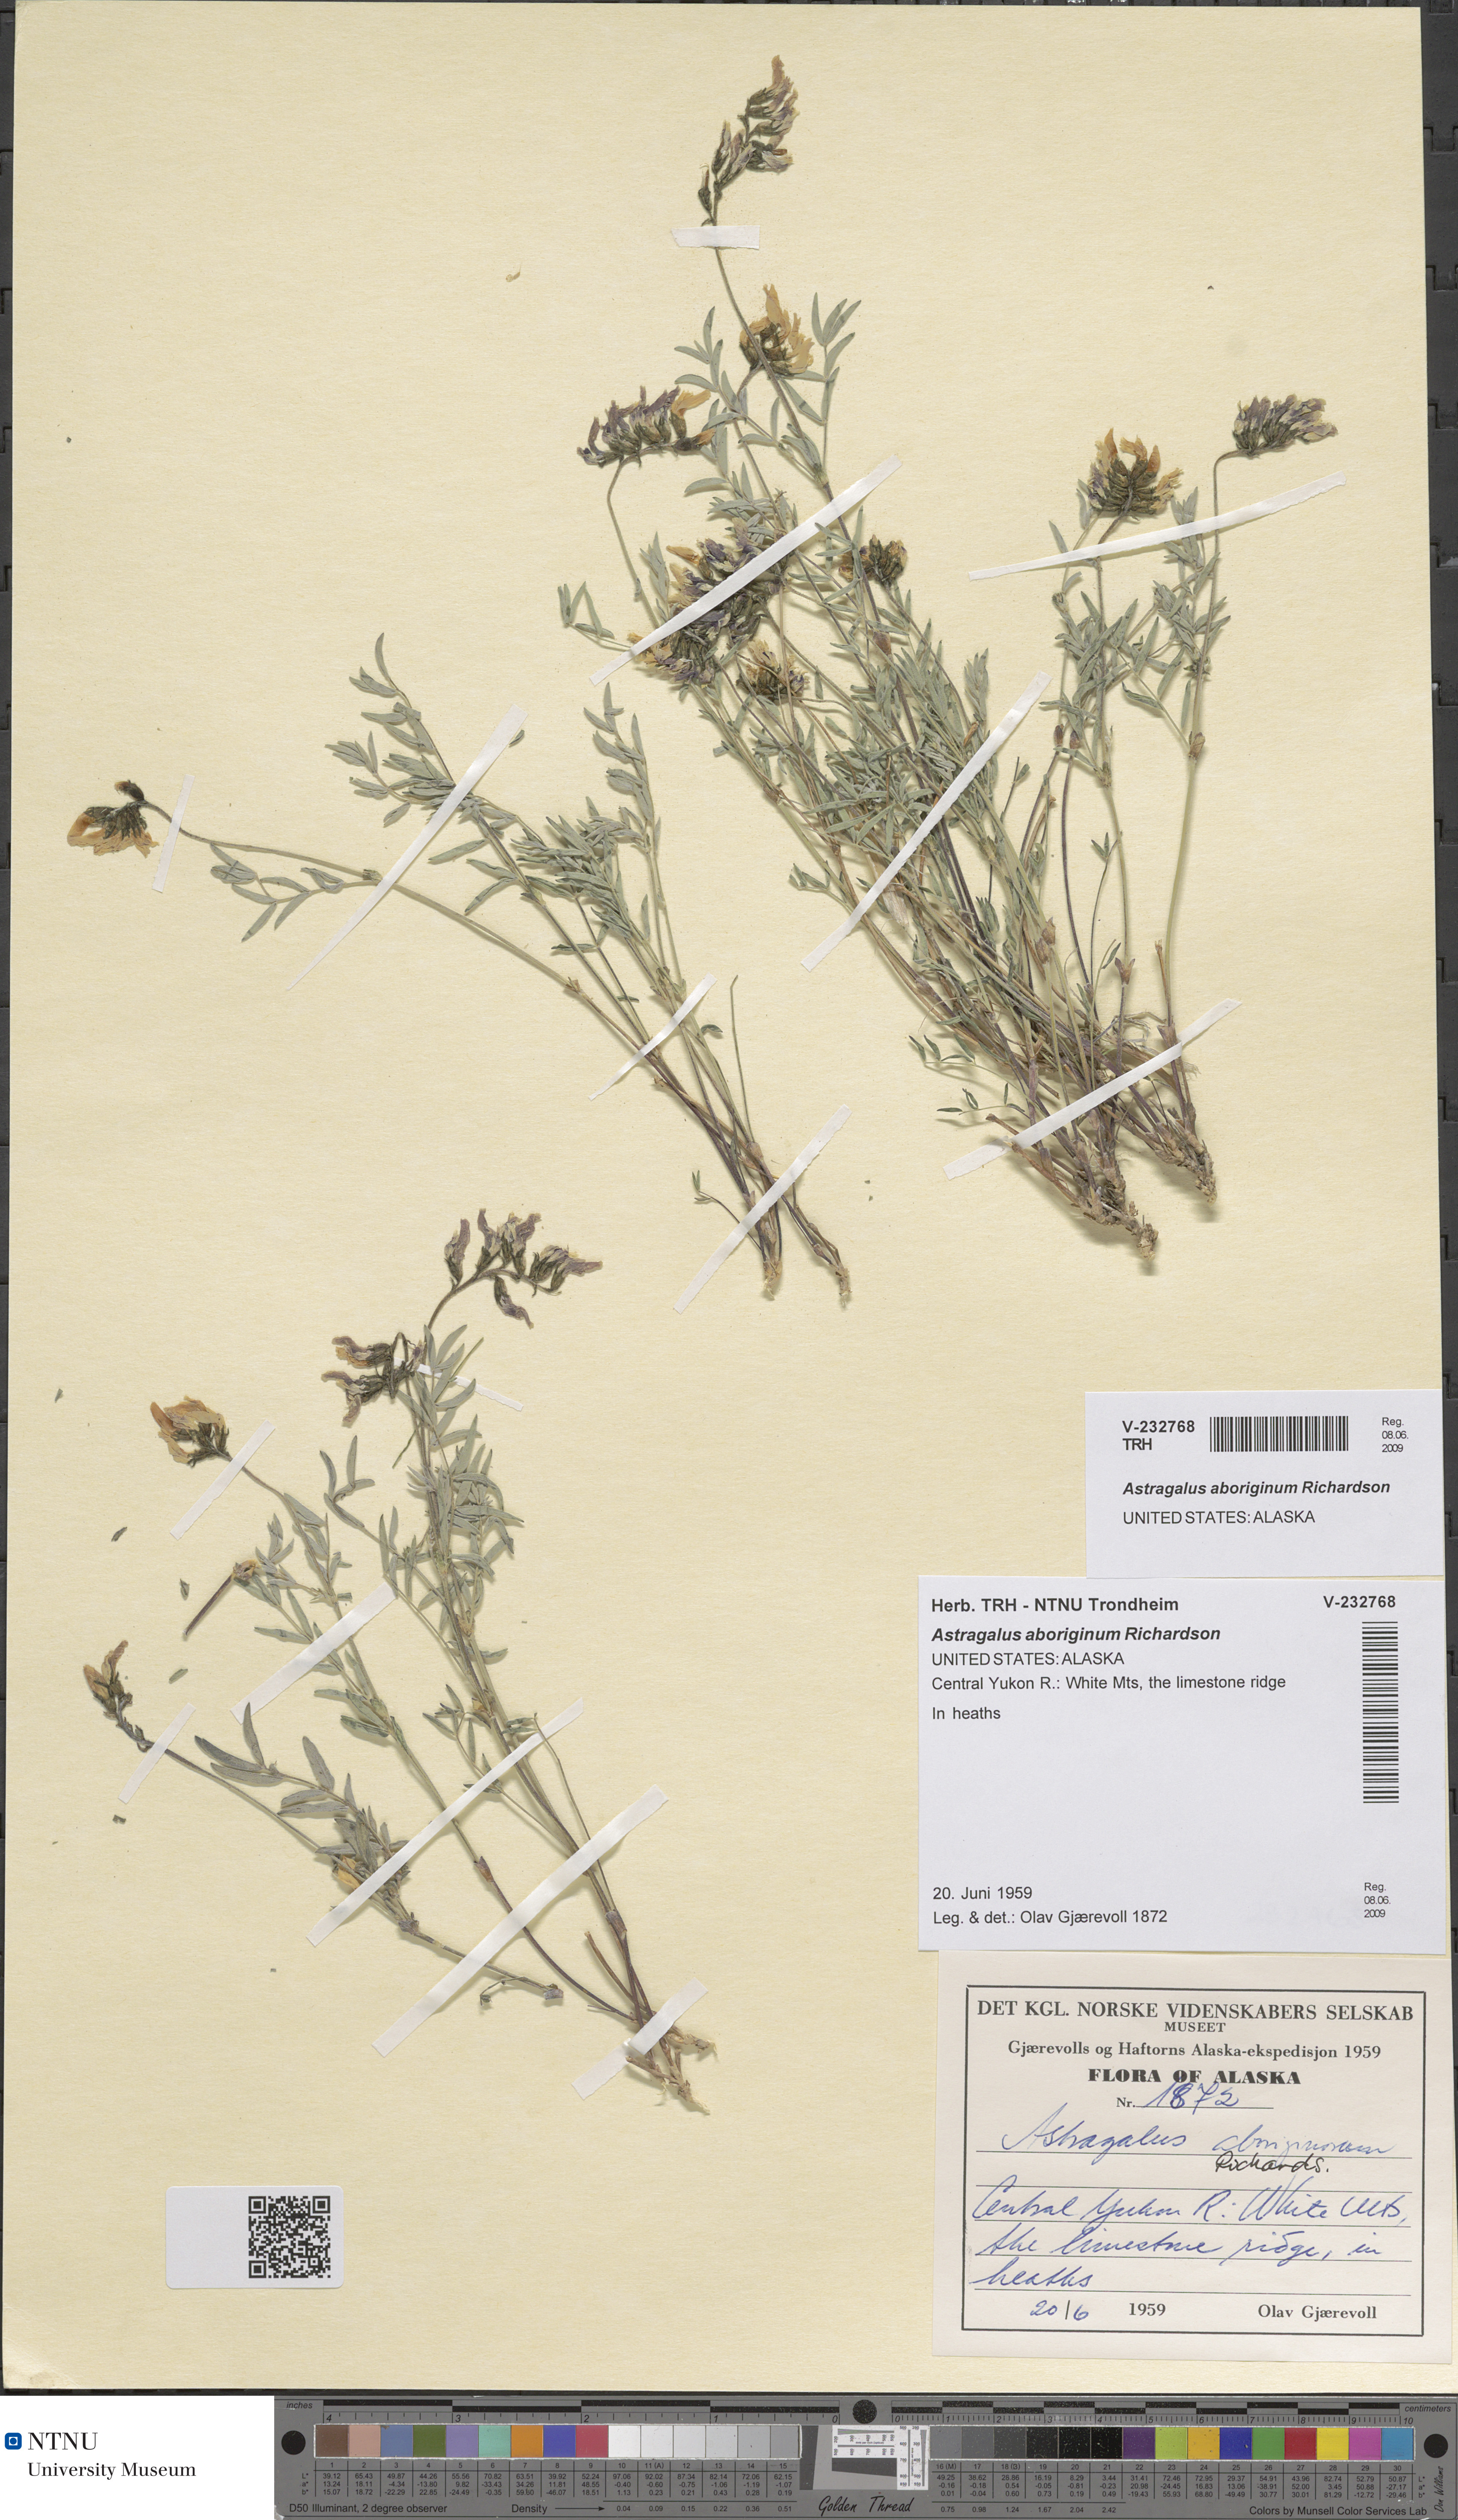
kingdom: Plantae
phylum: Tracheophyta
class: Magnoliopsida
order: Fabales
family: Fabaceae
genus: Astragalus
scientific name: Astragalus aboriginum
